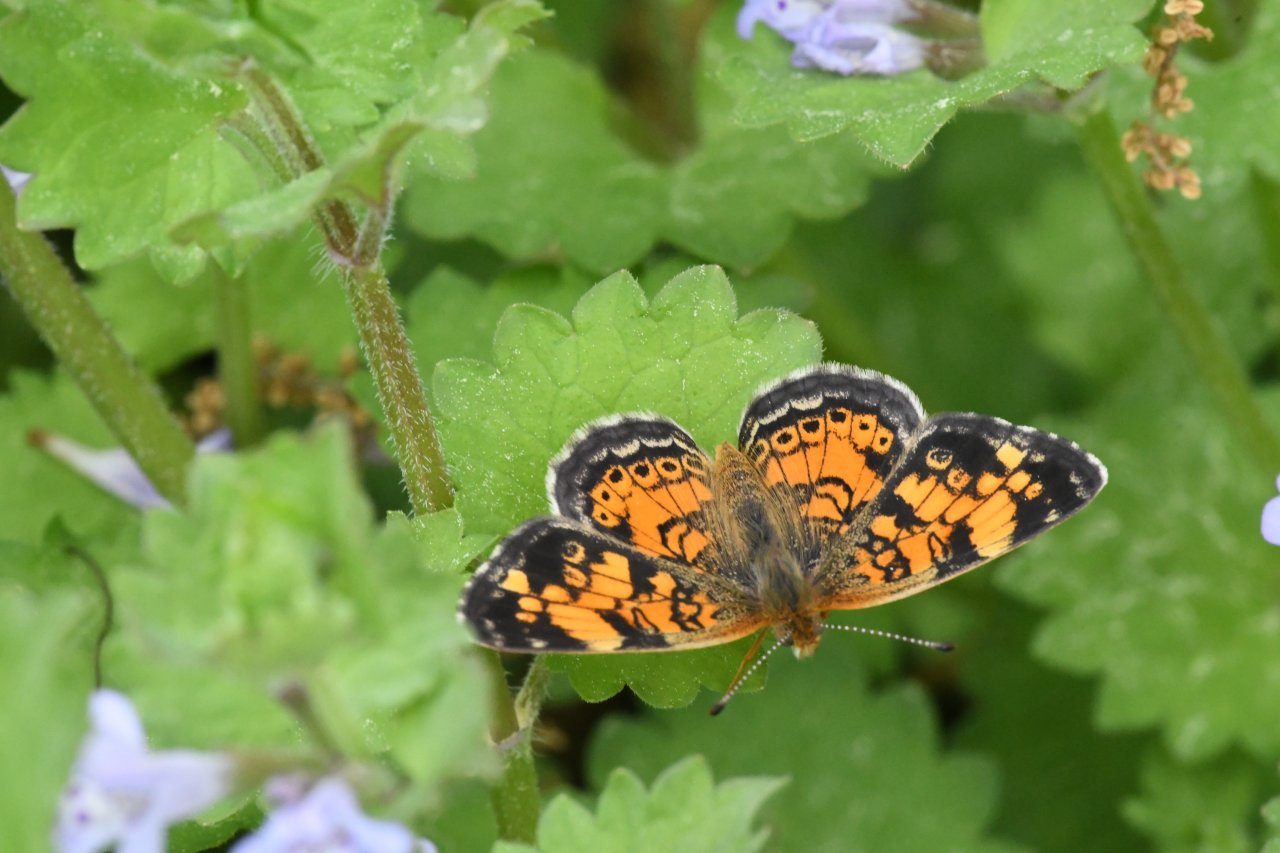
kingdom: Animalia
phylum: Arthropoda
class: Insecta
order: Lepidoptera
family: Nymphalidae
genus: Phyciodes
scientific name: Phyciodes tharos
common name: Pearl Crescent
